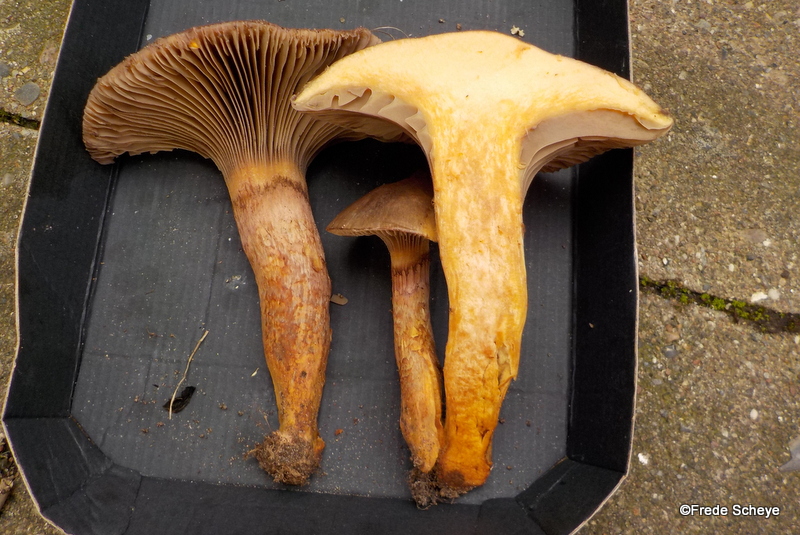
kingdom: Fungi
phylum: Basidiomycota
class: Agaricomycetes
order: Boletales
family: Gomphidiaceae
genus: Gomphidius
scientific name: Gomphidius glutinosus
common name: grå slimslør
